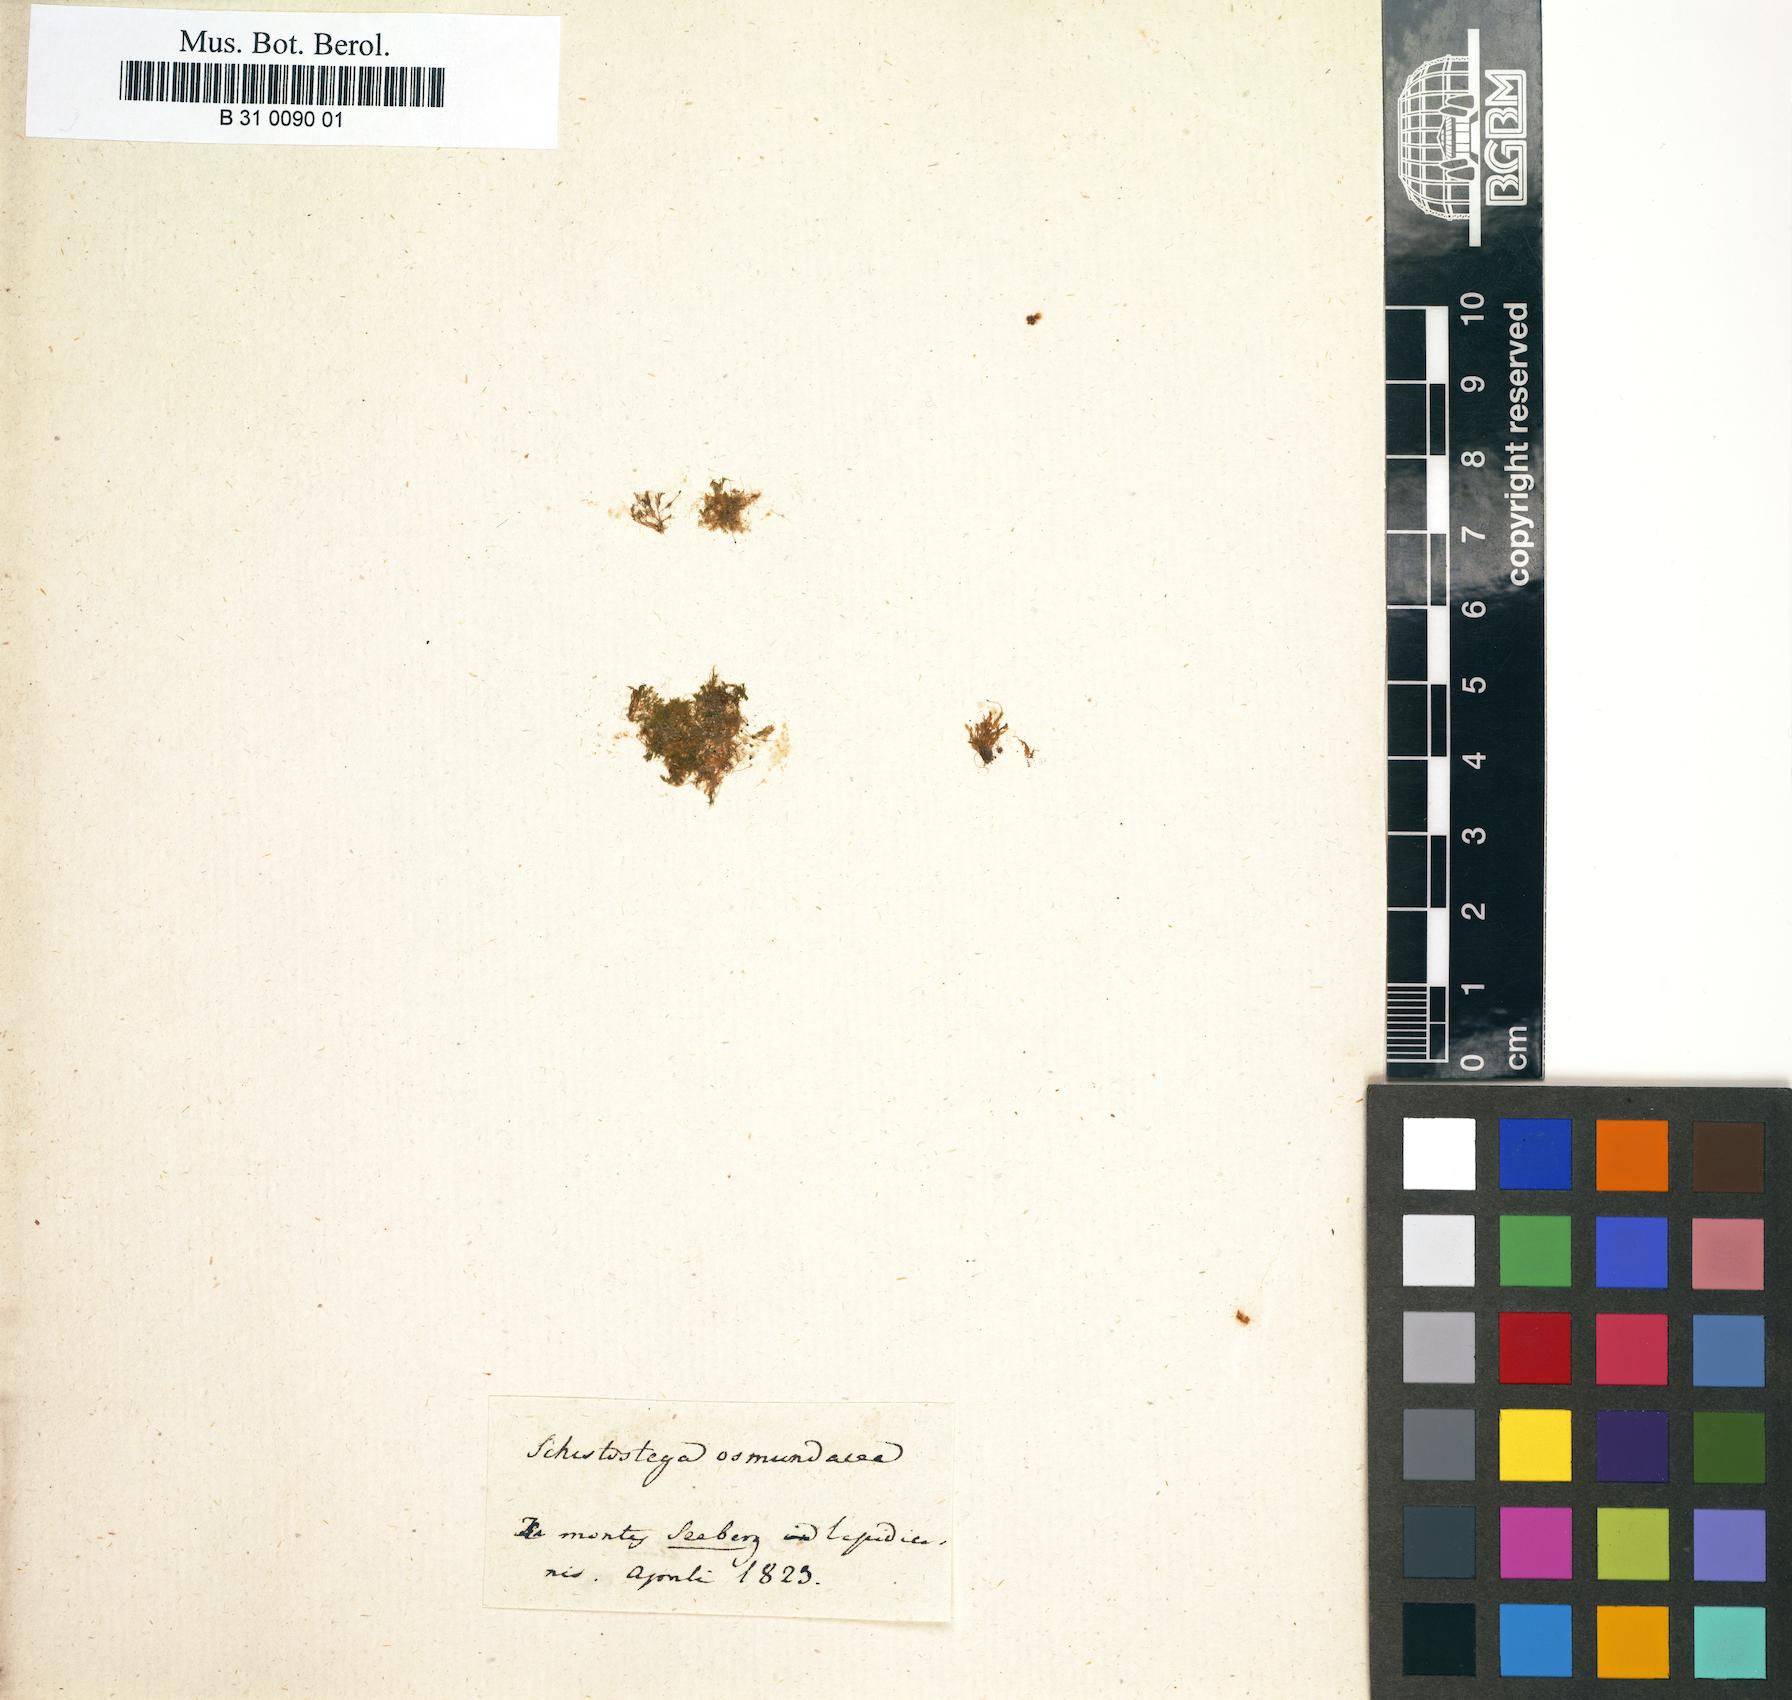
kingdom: Plantae
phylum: Bryophyta
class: Bryopsida
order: Dicranales
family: Schistostegaceae
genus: Schistostega
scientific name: Schistostega pennata
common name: Luminous moss
